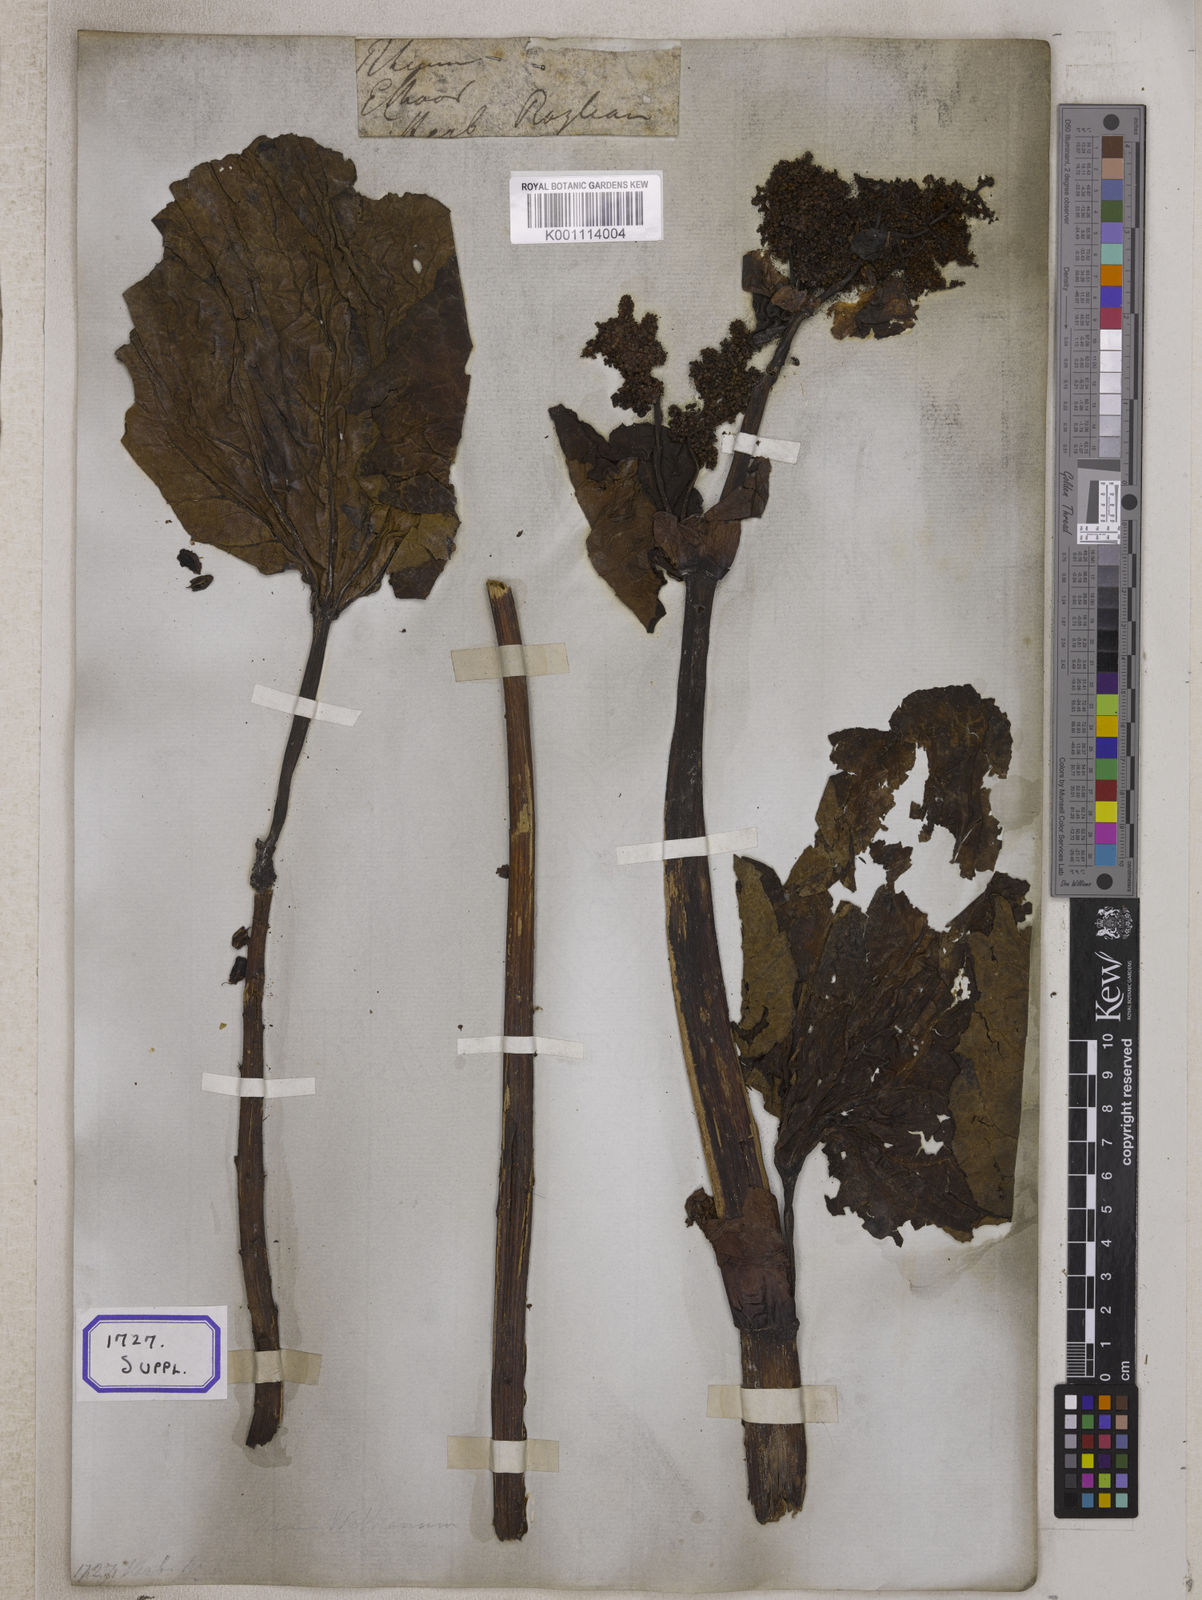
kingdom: Plantae
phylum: Tracheophyta
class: Magnoliopsida
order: Caryophyllales
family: Polygonaceae
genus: Rheum
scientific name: Rheum
